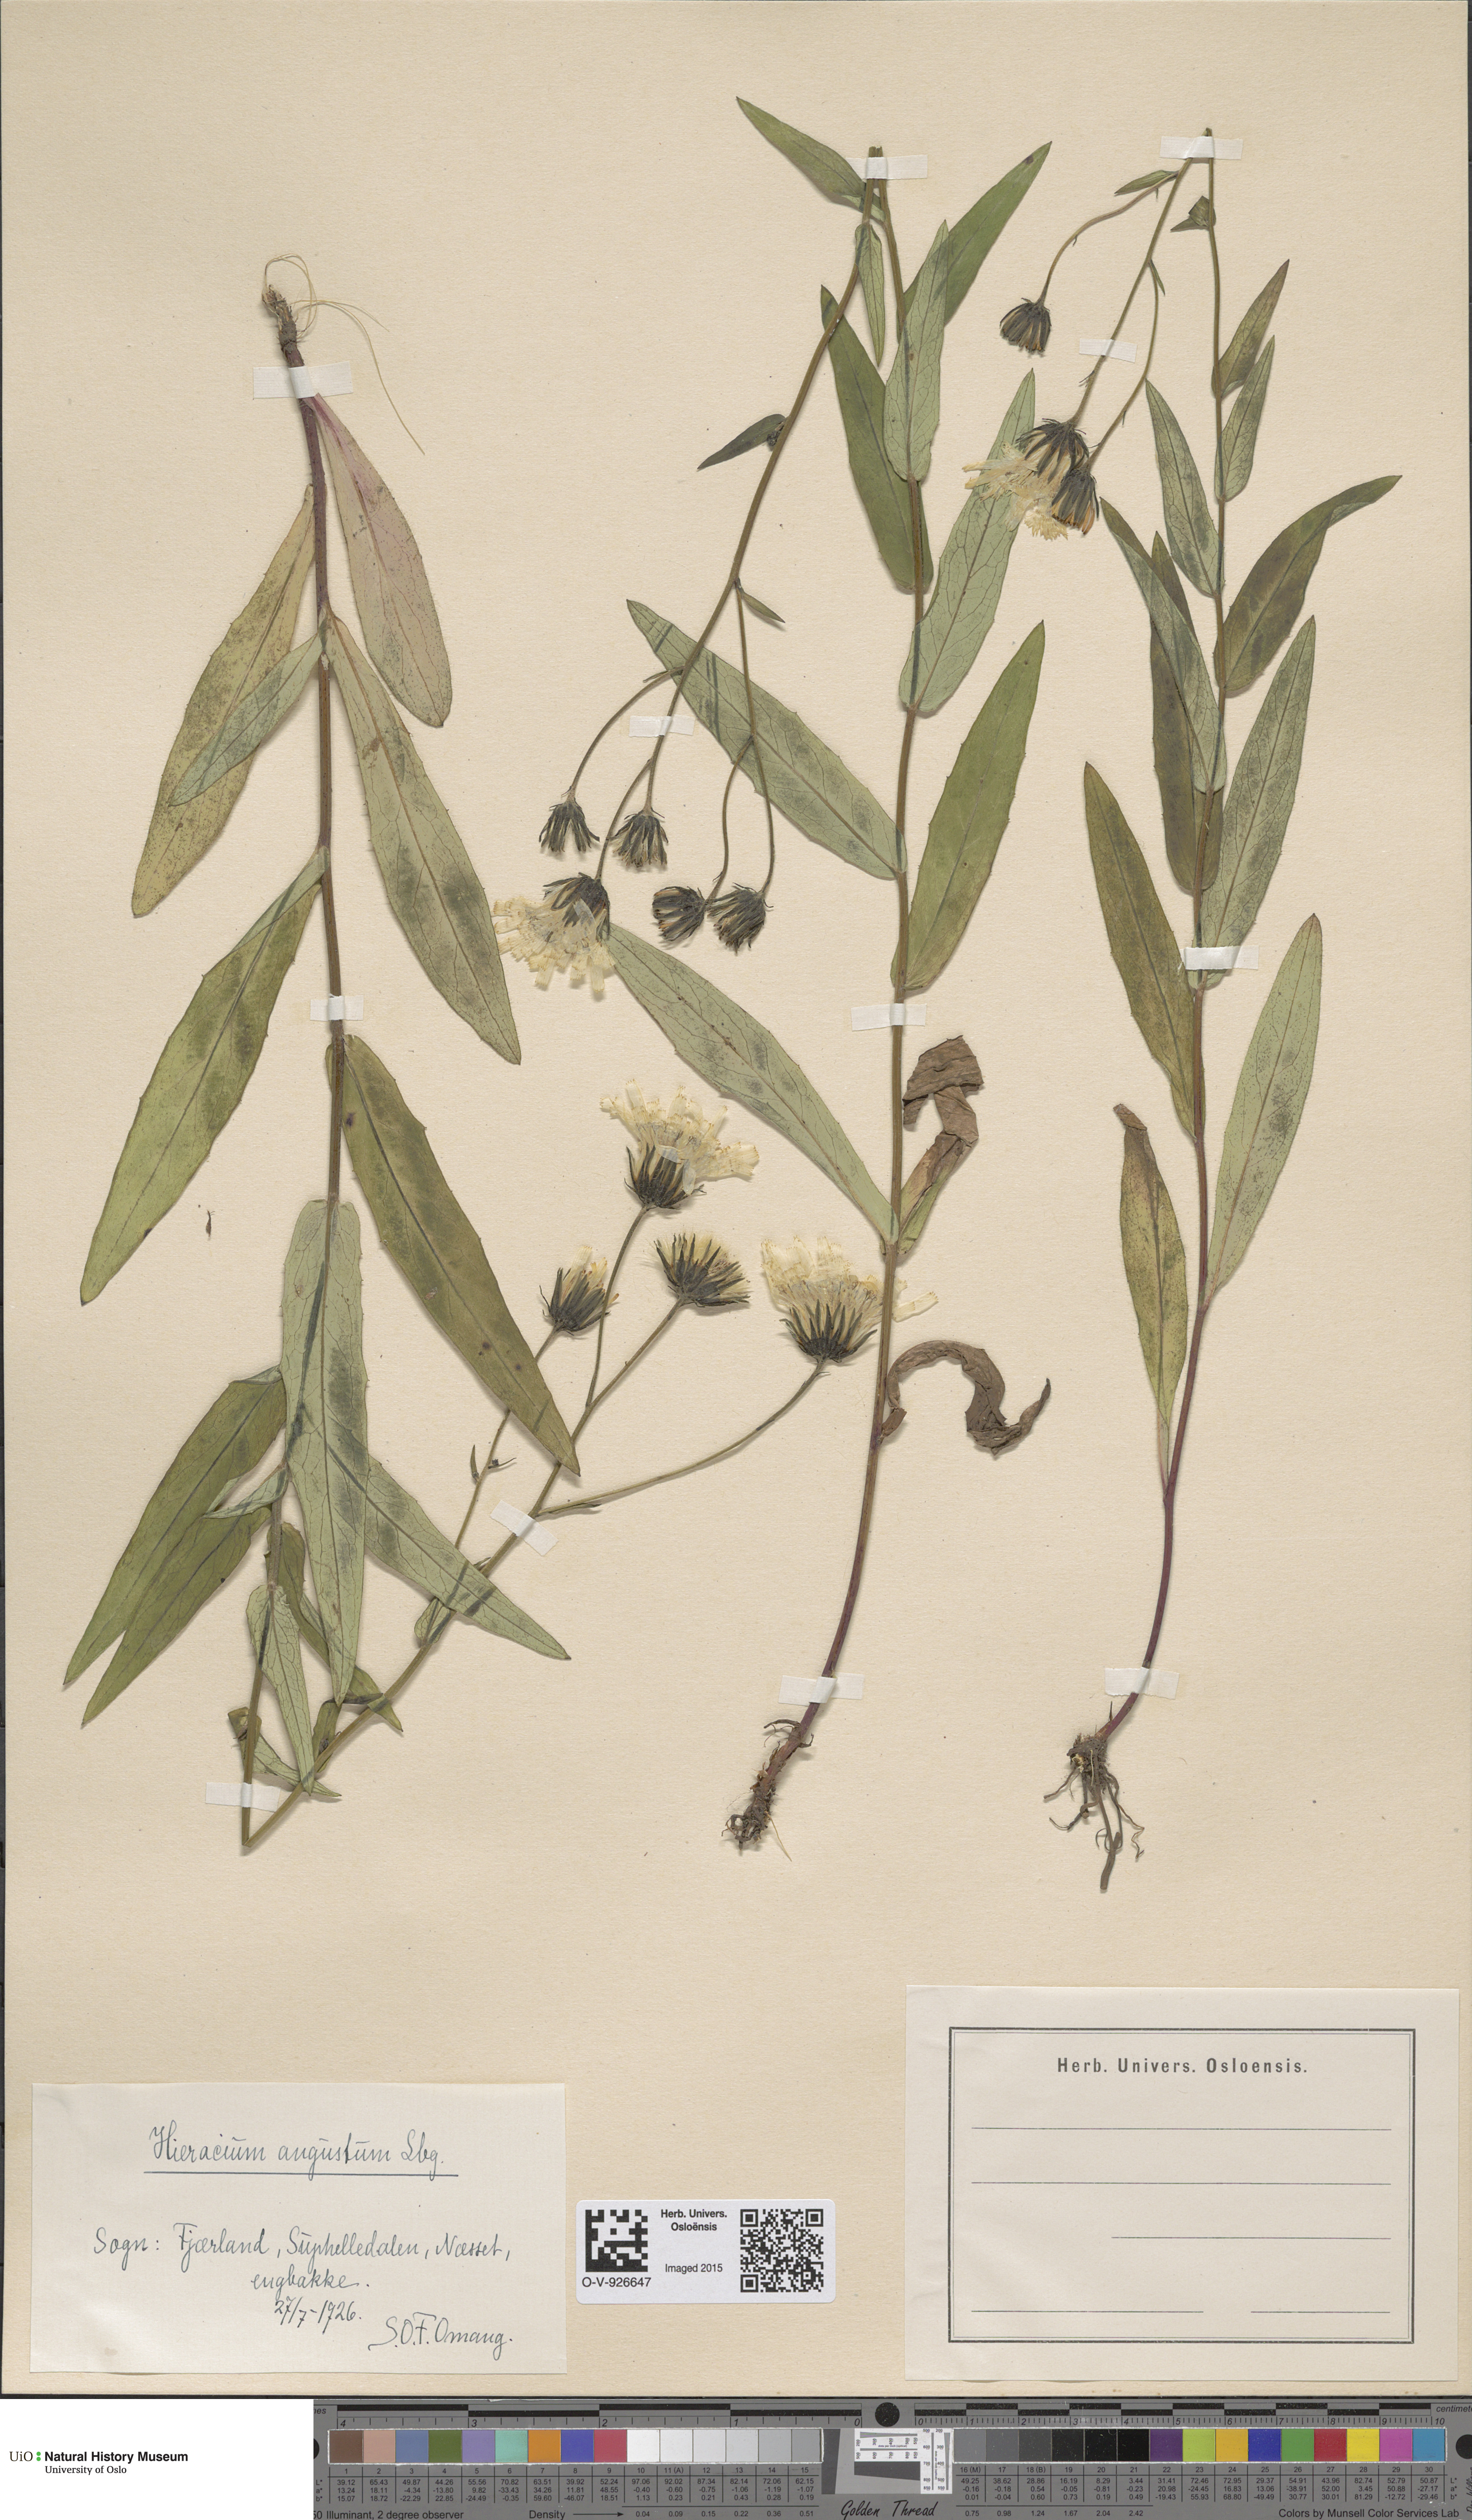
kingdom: Plantae
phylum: Tracheophyta
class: Magnoliopsida
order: Asterales
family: Asteraceae
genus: Hieracium
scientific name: Hieracium angustum
